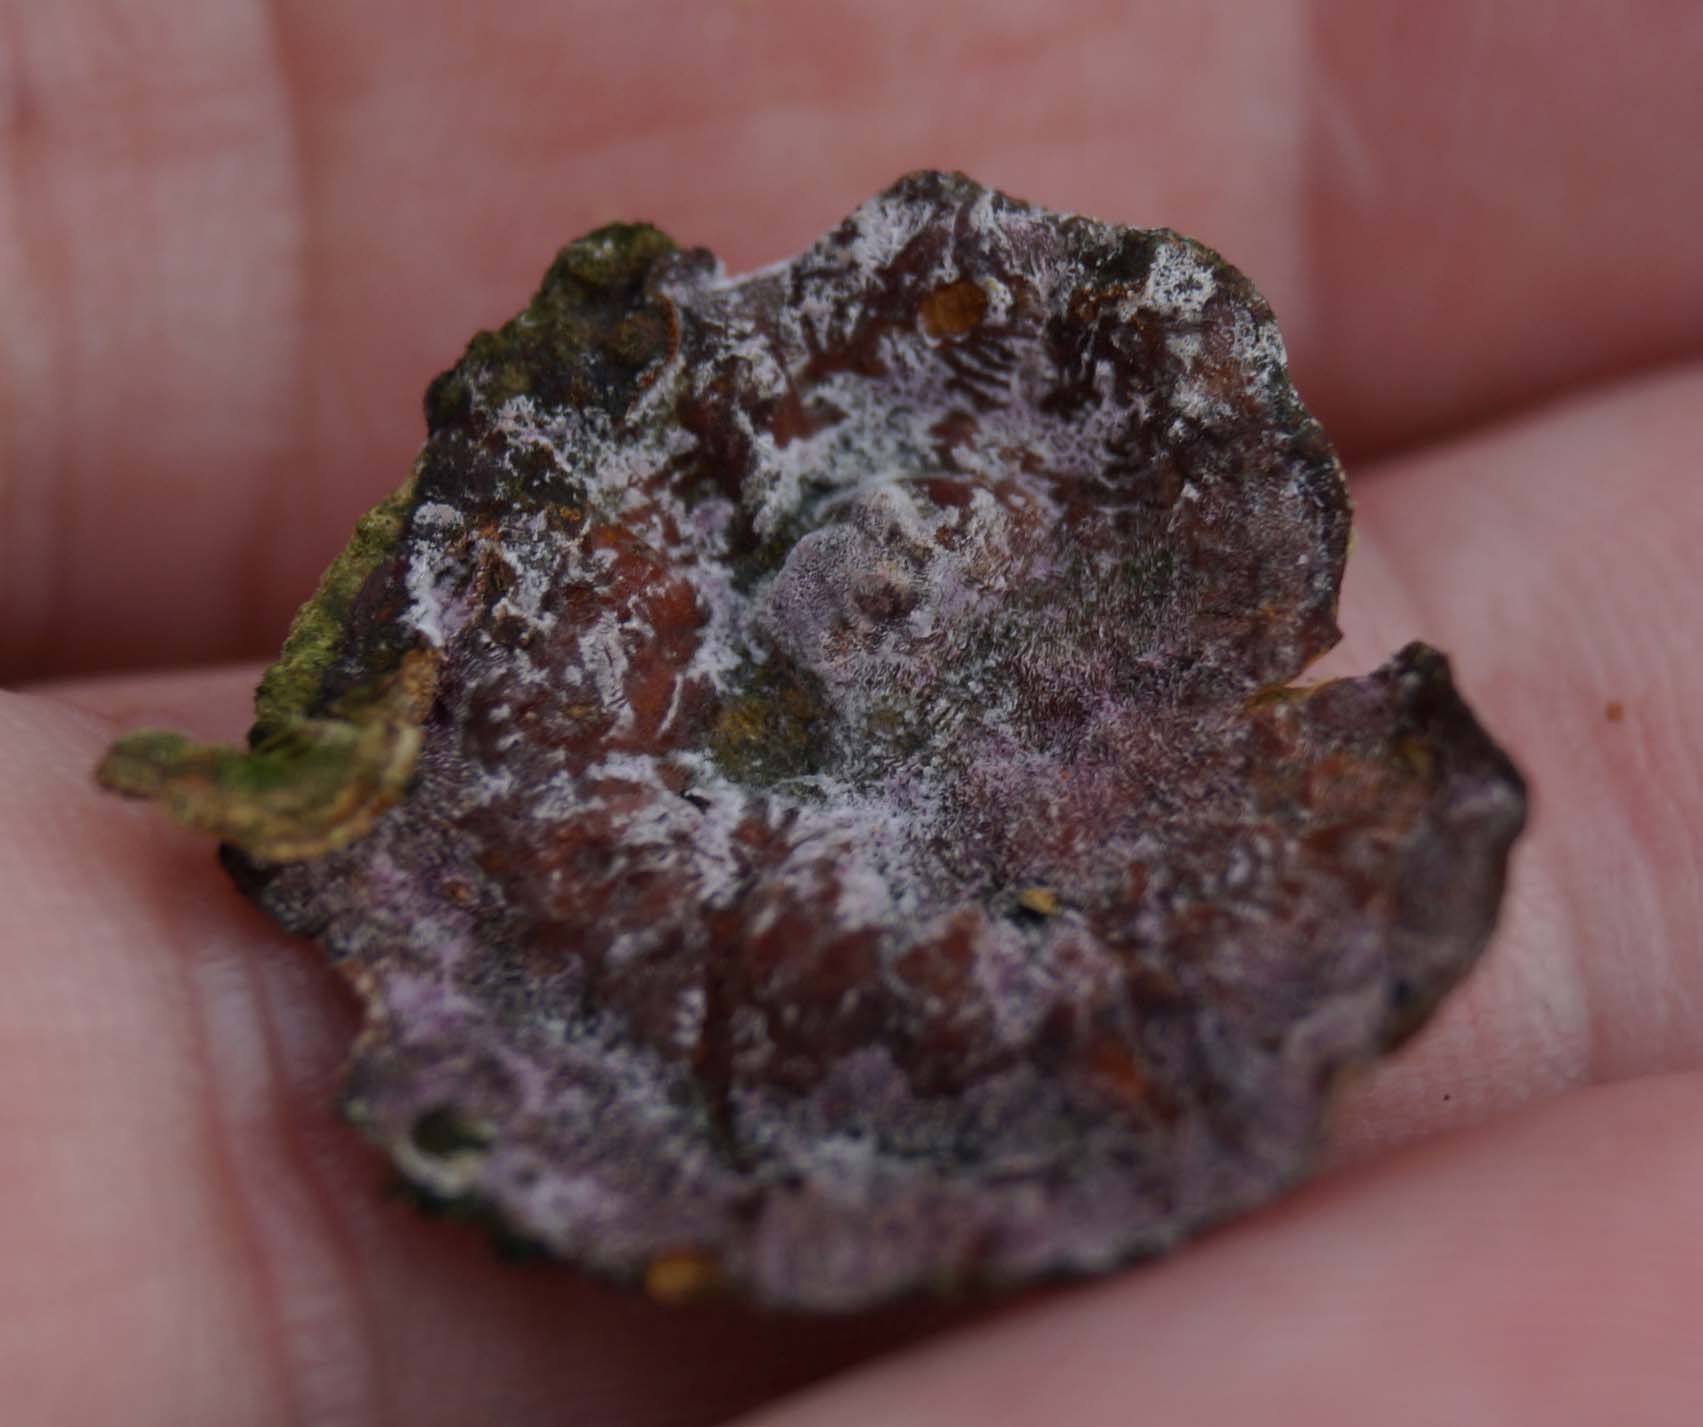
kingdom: Fungi
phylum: Ascomycota
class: Sordariomycetes
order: Hypocreales
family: Hypocreaceae
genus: Sphaerostilbella
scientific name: Sphaerostilbella berkeleyana
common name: grårosa snylteskorpe
